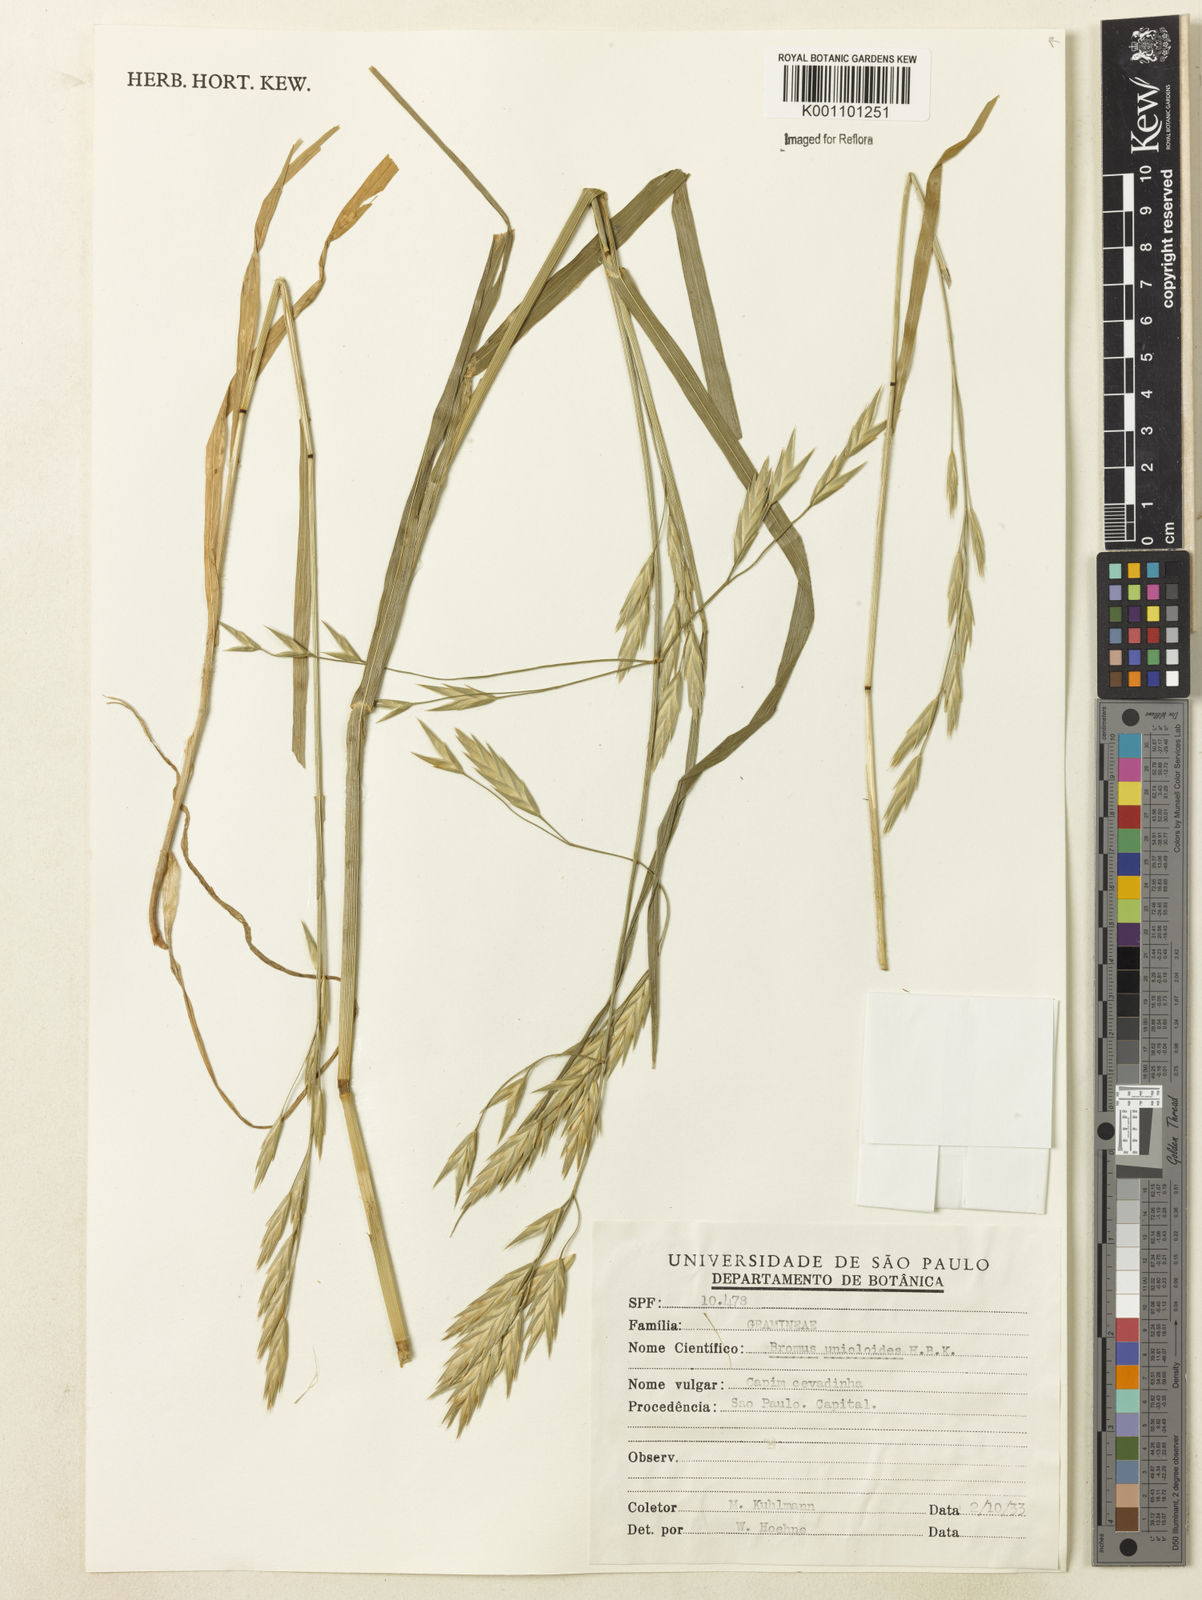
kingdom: Plantae
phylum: Tracheophyta
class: Liliopsida
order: Poales
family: Poaceae
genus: Bromus
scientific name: Bromus catharticus
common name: Rescuegrass
